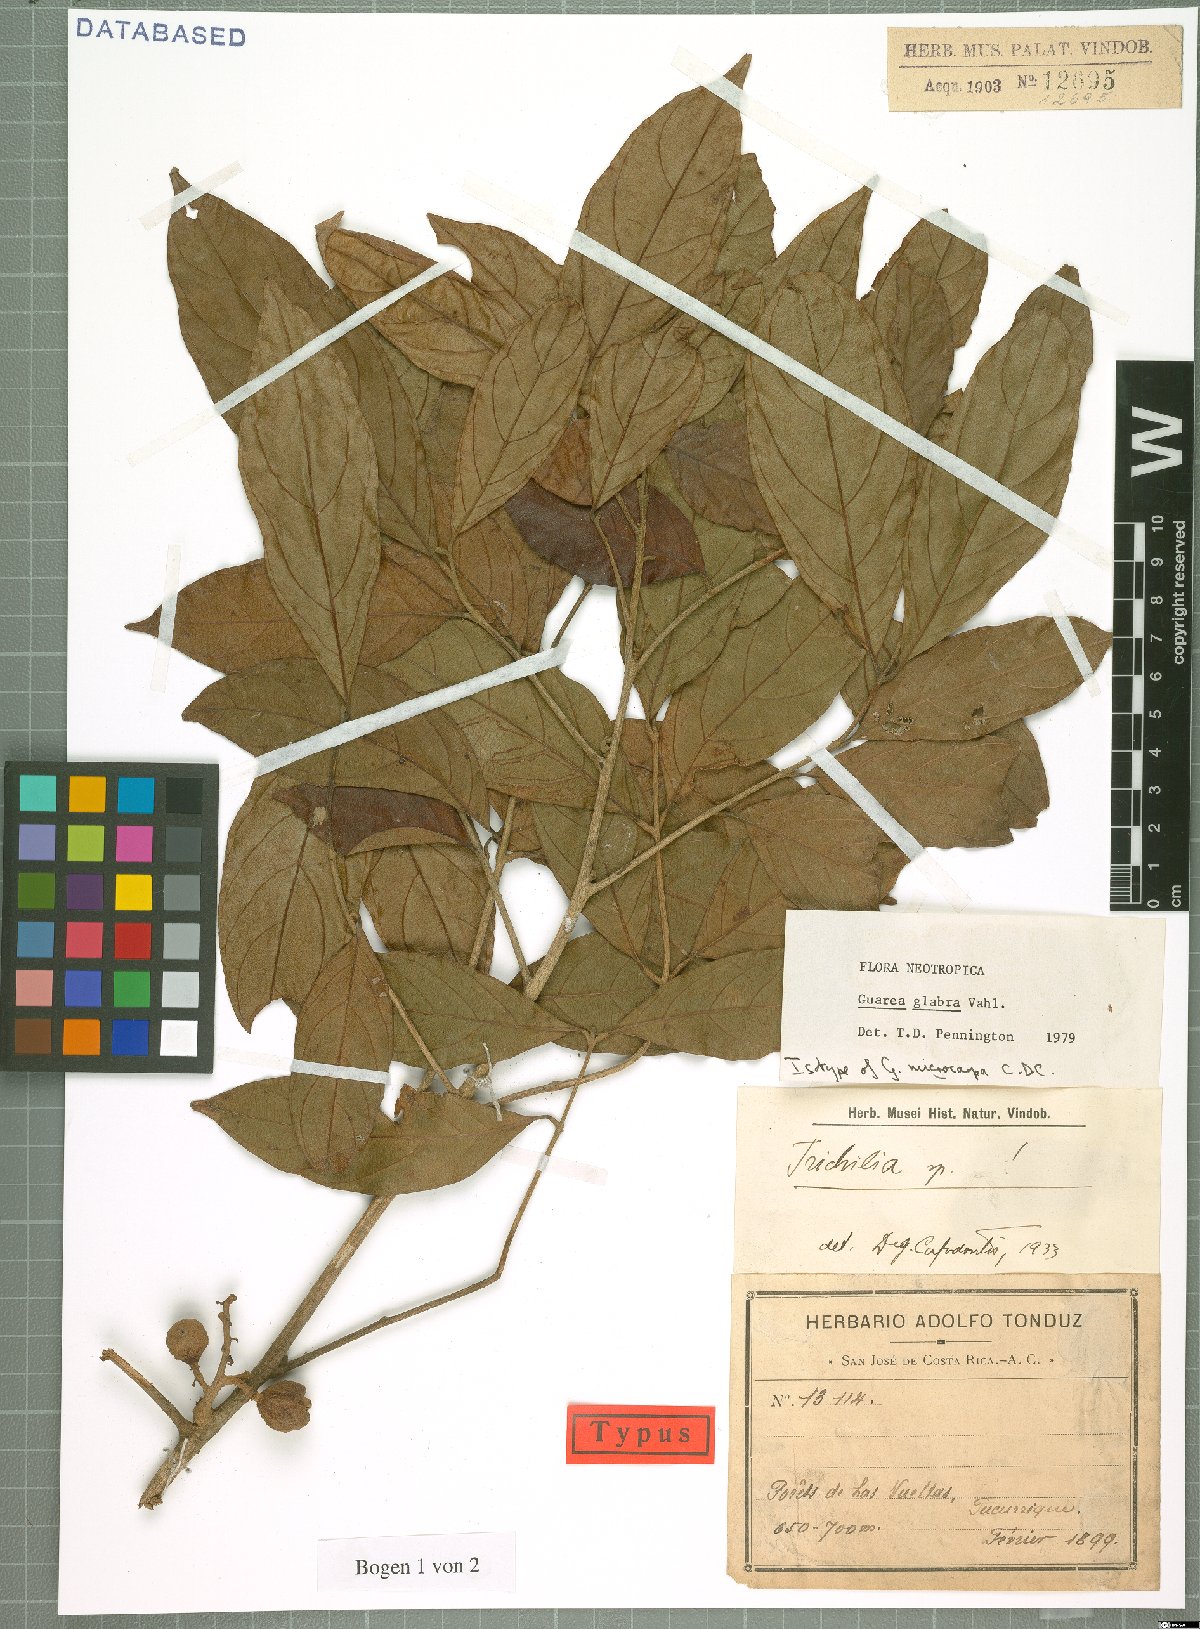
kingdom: Plantae
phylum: Tracheophyta
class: Magnoliopsida
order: Sapindales
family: Meliaceae
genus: Guarea
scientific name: Guarea glabra
